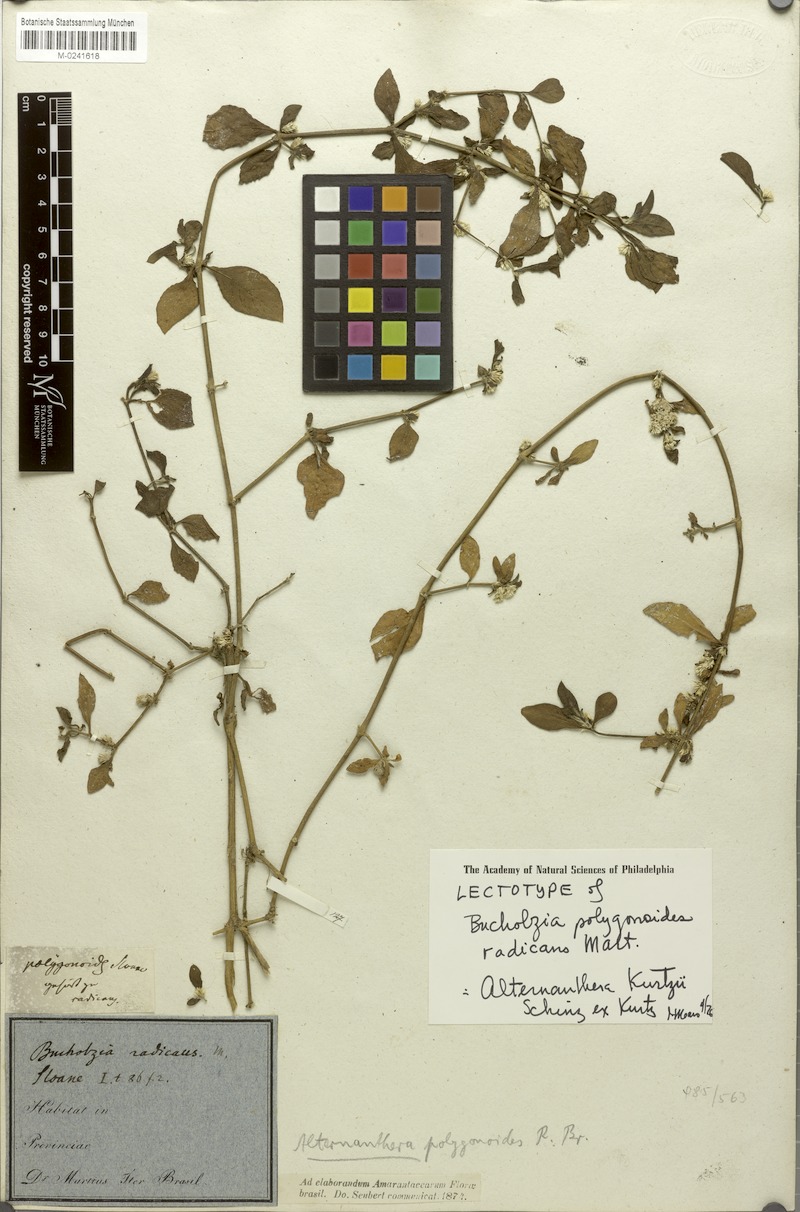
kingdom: Plantae
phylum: Tracheophyta
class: Magnoliopsida
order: Caryophyllales
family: Amaranthaceae
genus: Alternanthera
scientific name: Alternanthera ficoidea
